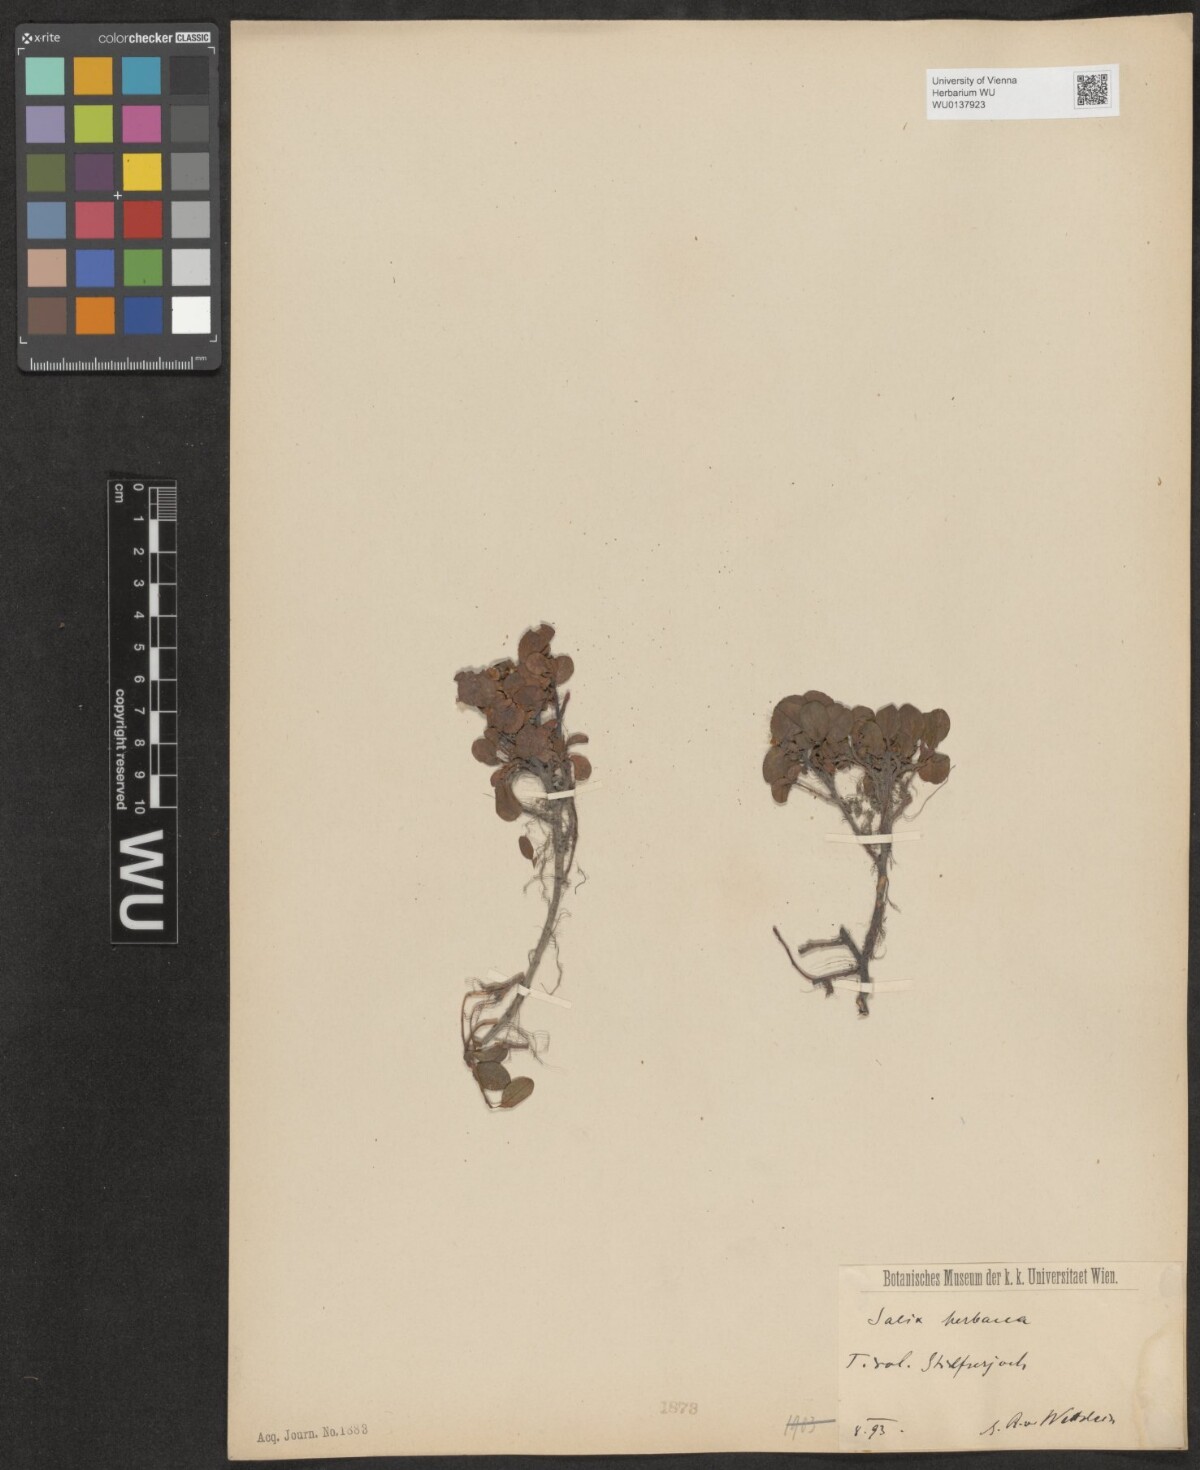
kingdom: Plantae
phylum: Tracheophyta
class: Magnoliopsida
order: Malpighiales
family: Salicaceae
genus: Salix
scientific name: Salix herbacea
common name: Dwarf willow
